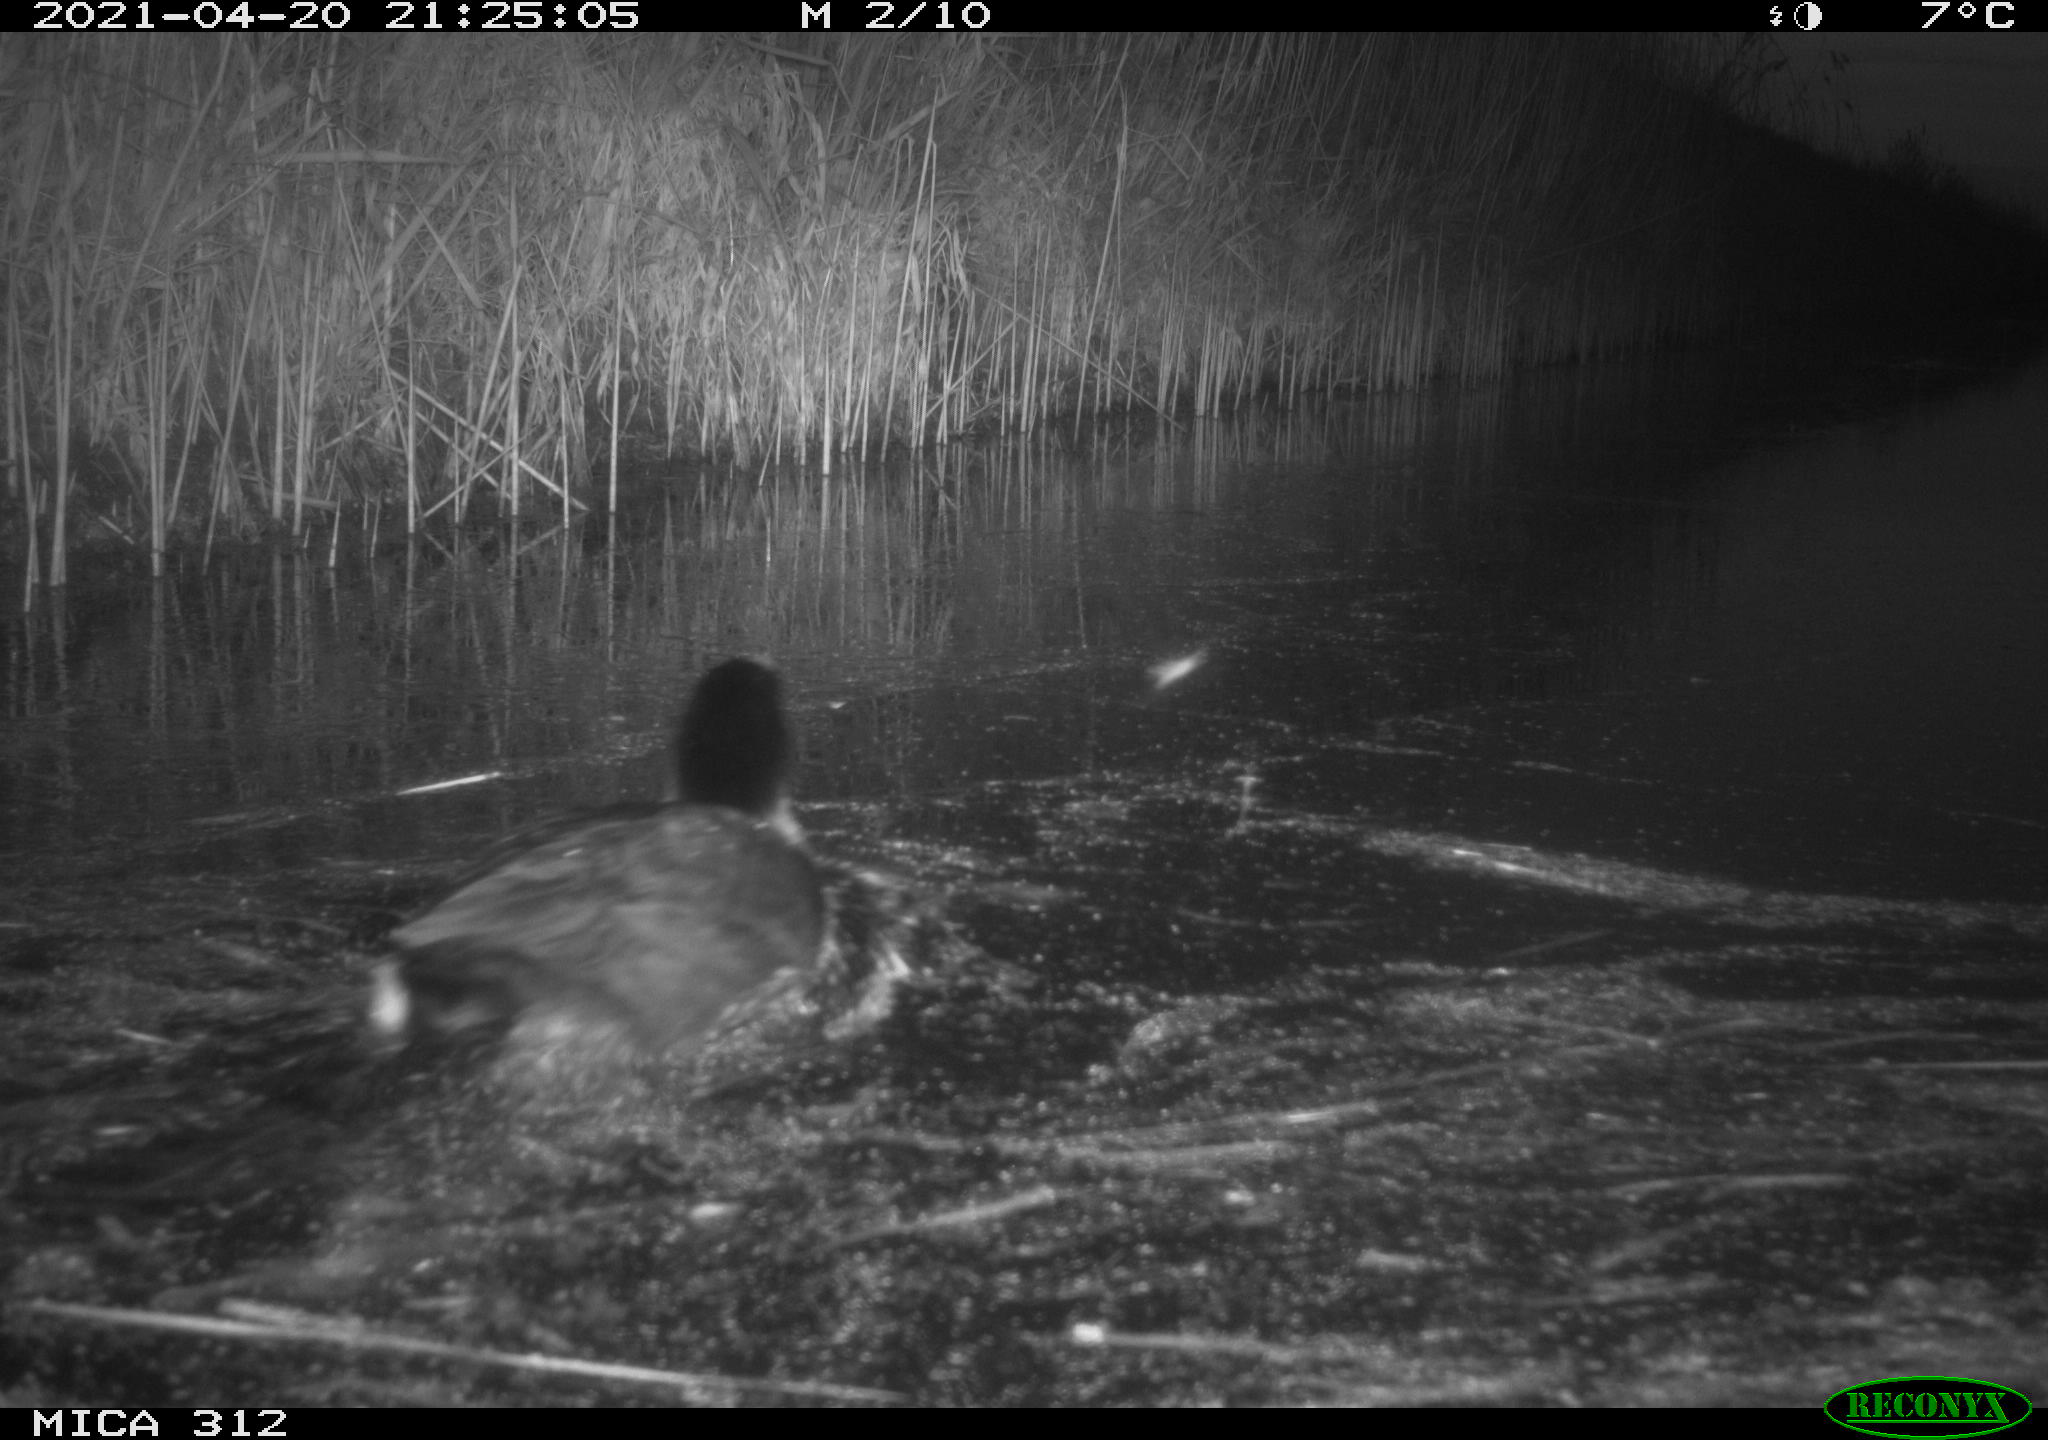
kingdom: Animalia
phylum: Chordata
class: Aves
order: Gruiformes
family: Rallidae
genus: Fulica
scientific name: Fulica atra
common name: Eurasian coot
